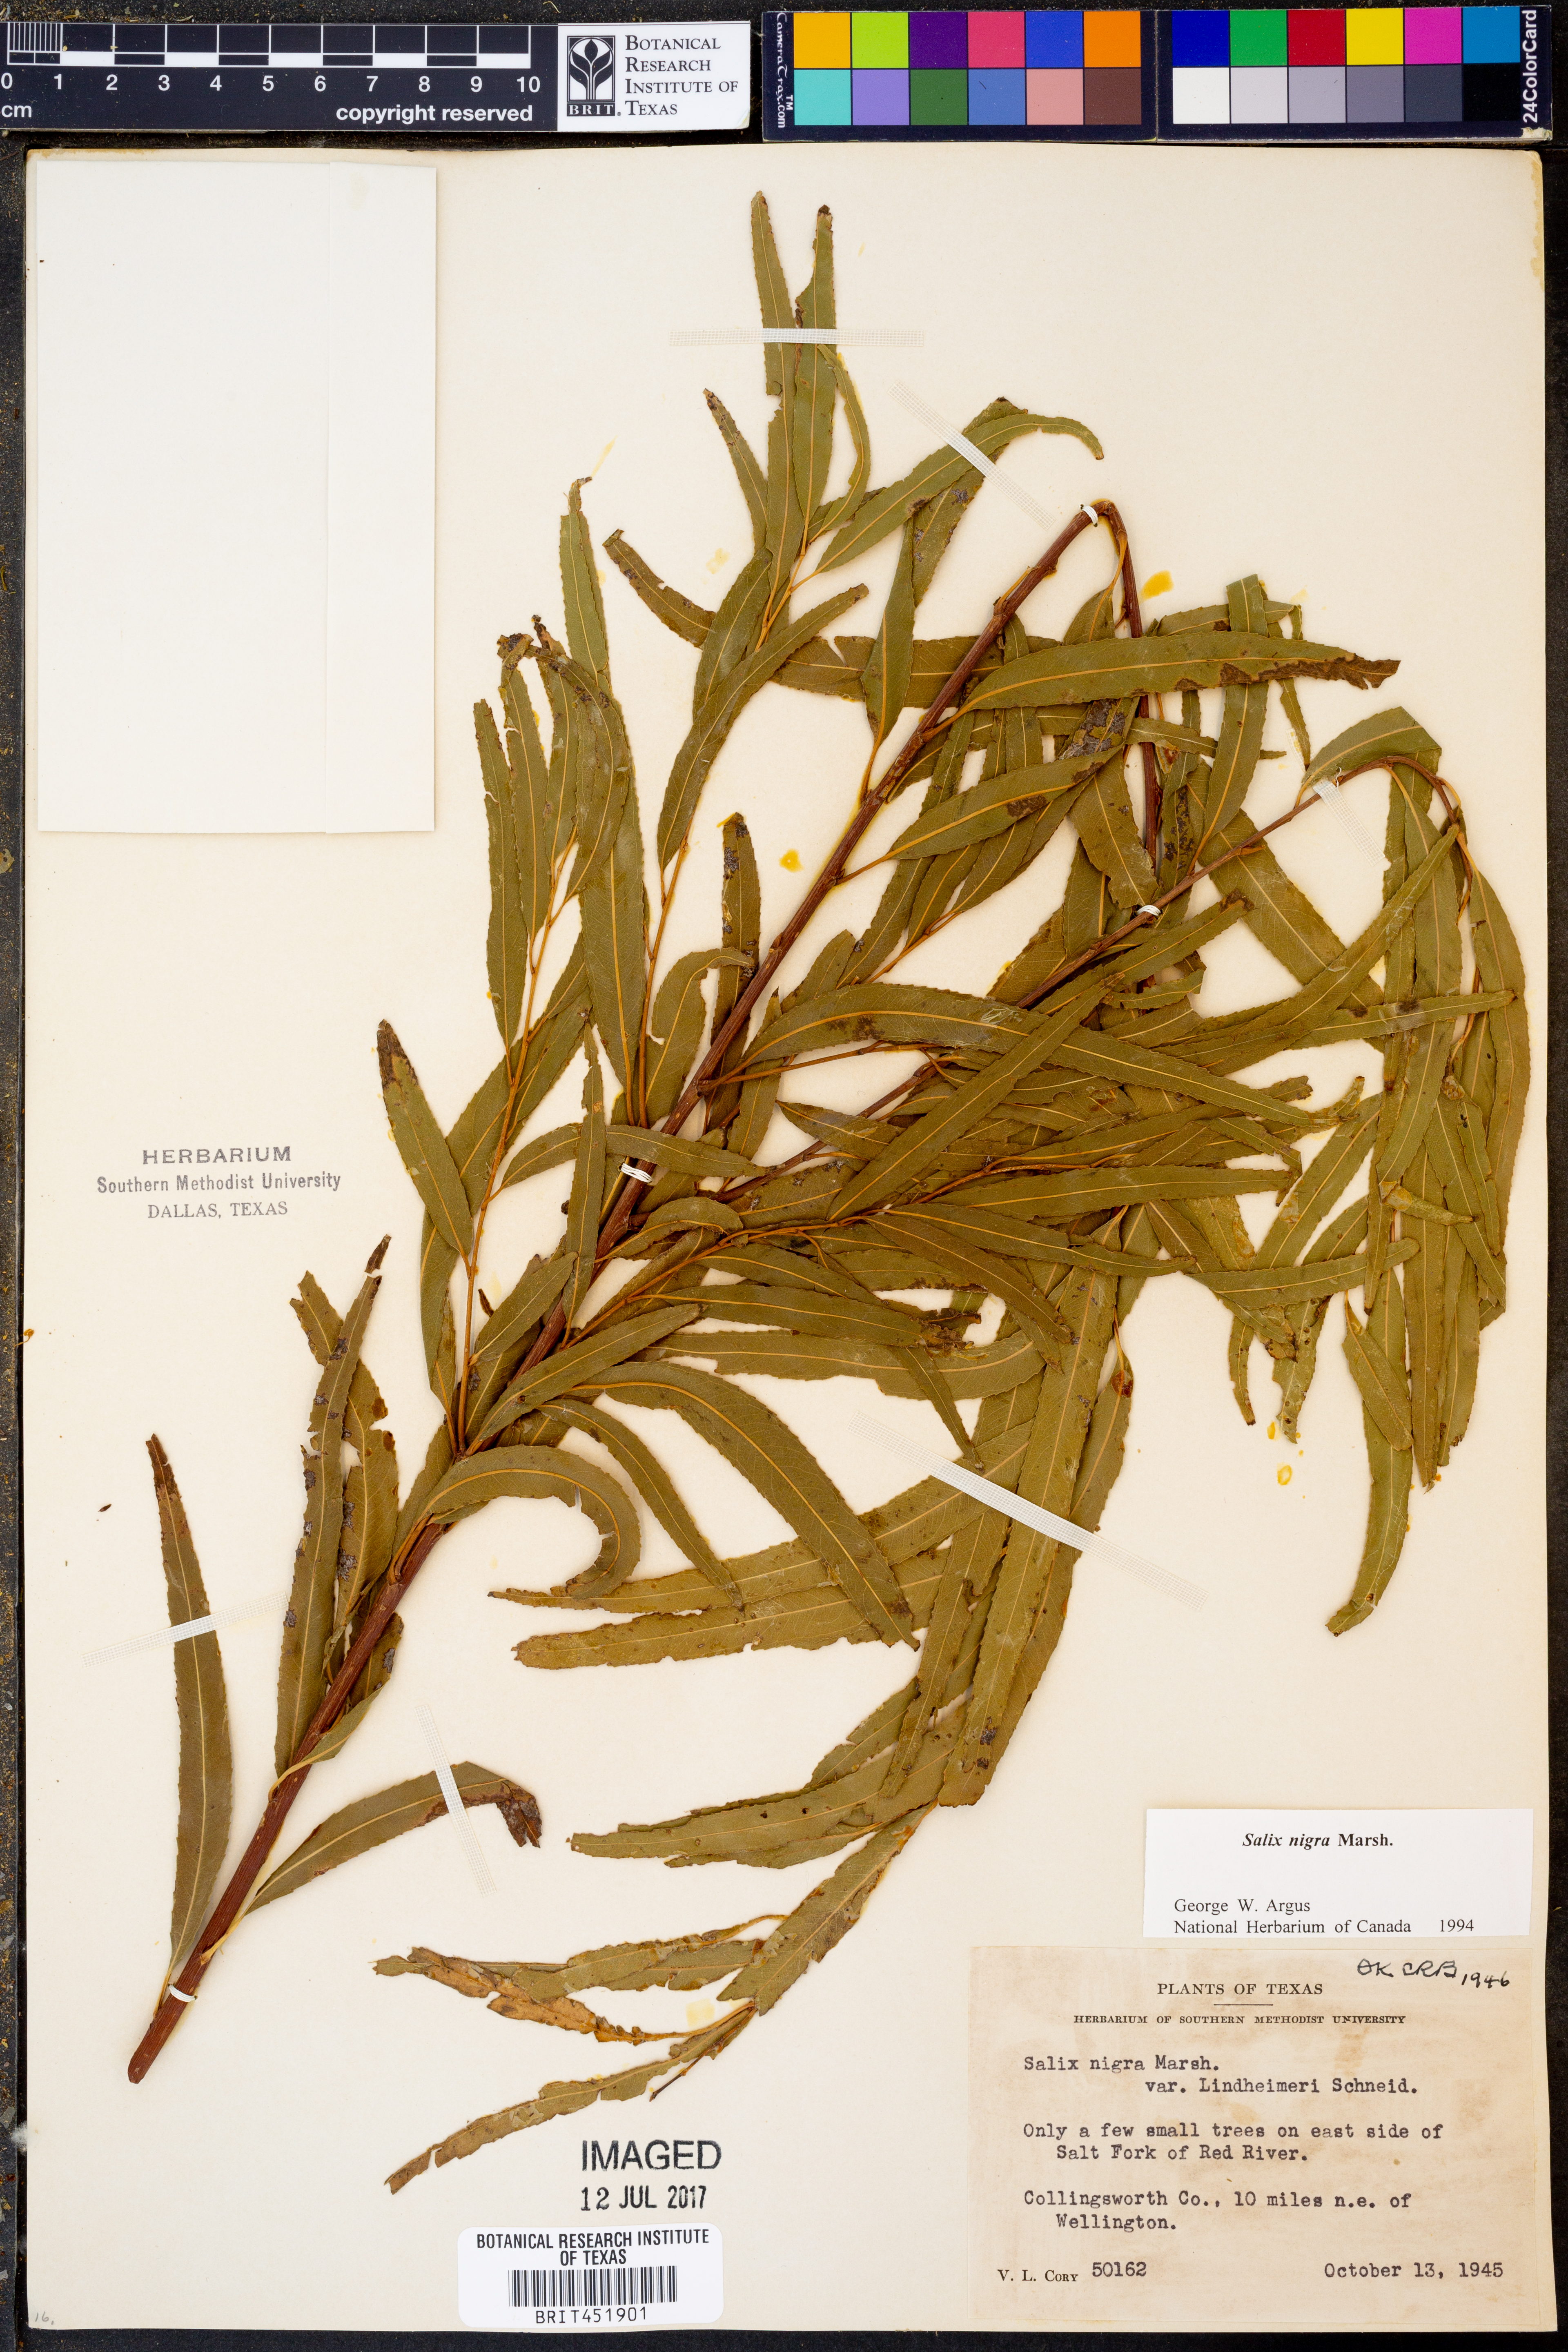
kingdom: Plantae
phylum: Tracheophyta
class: Magnoliopsida
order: Malpighiales
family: Salicaceae
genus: Salix
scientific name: Salix nigra
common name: Black willow
